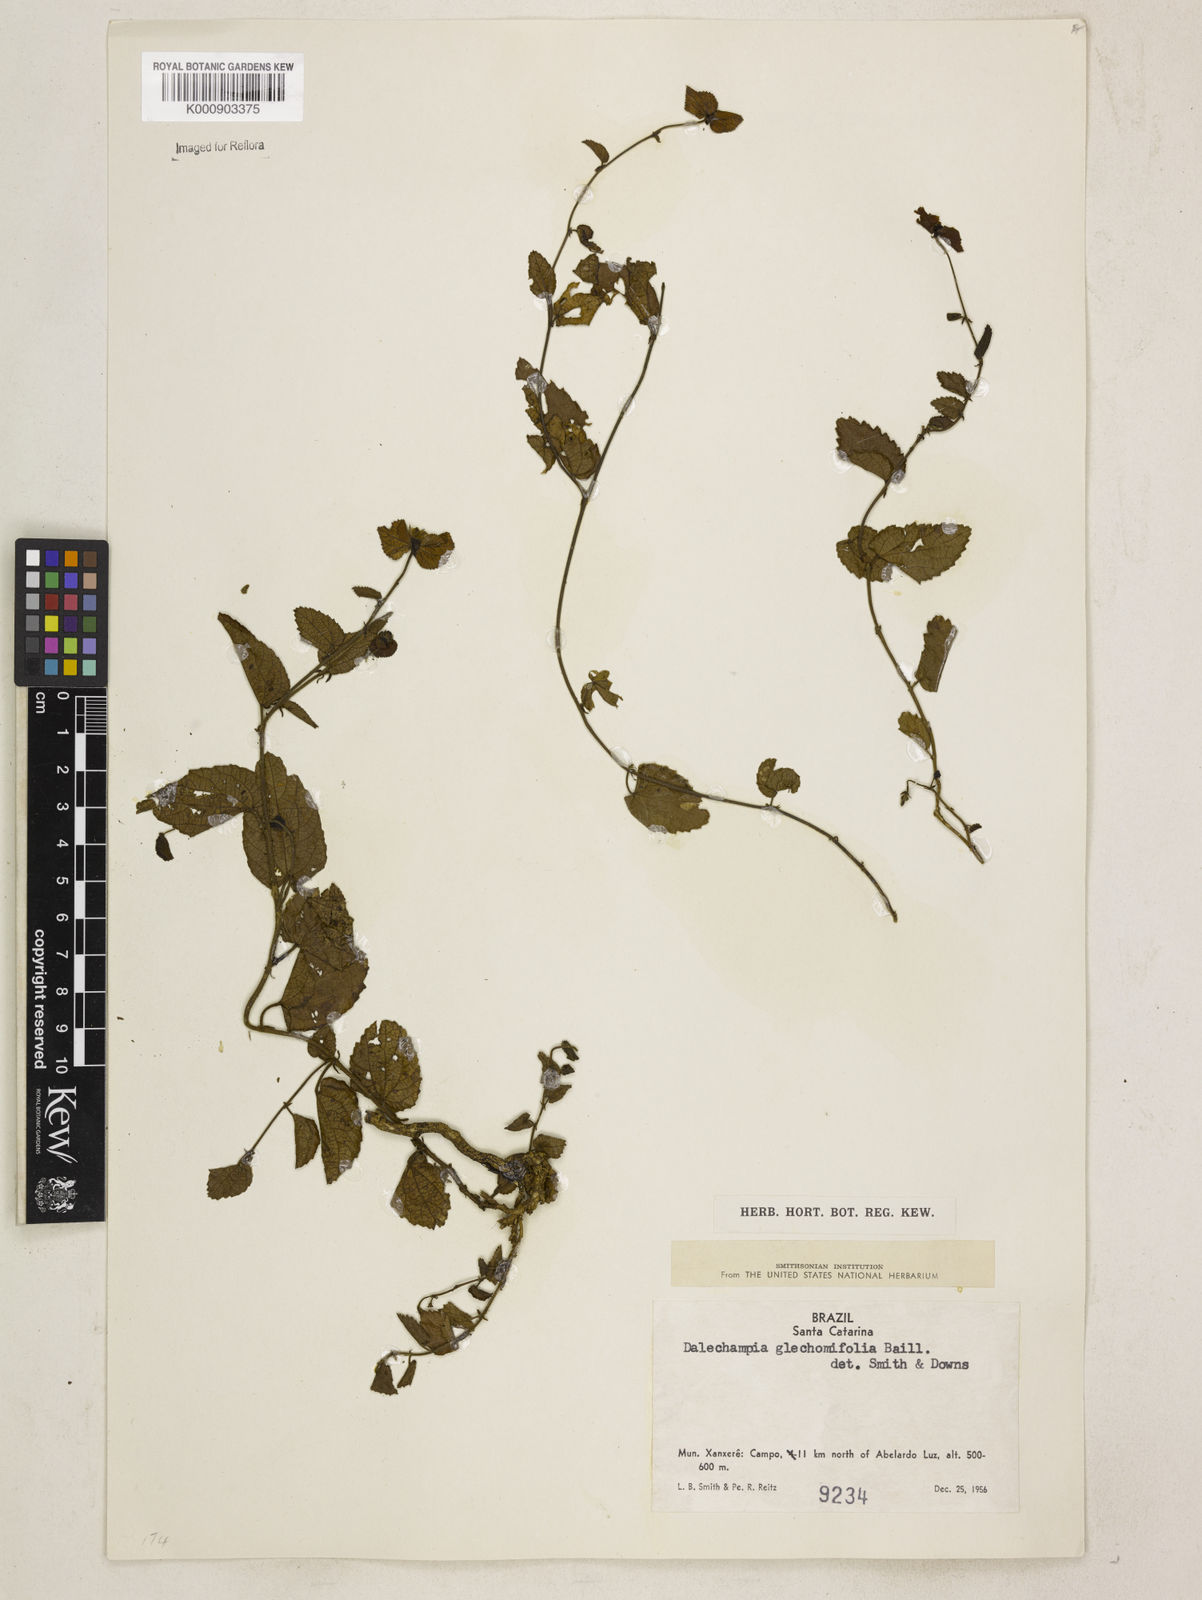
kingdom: Plantae
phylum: Tracheophyta
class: Magnoliopsida
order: Malpighiales
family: Euphorbiaceae
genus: Dalechampia
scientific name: Dalechampia glechomifolia
